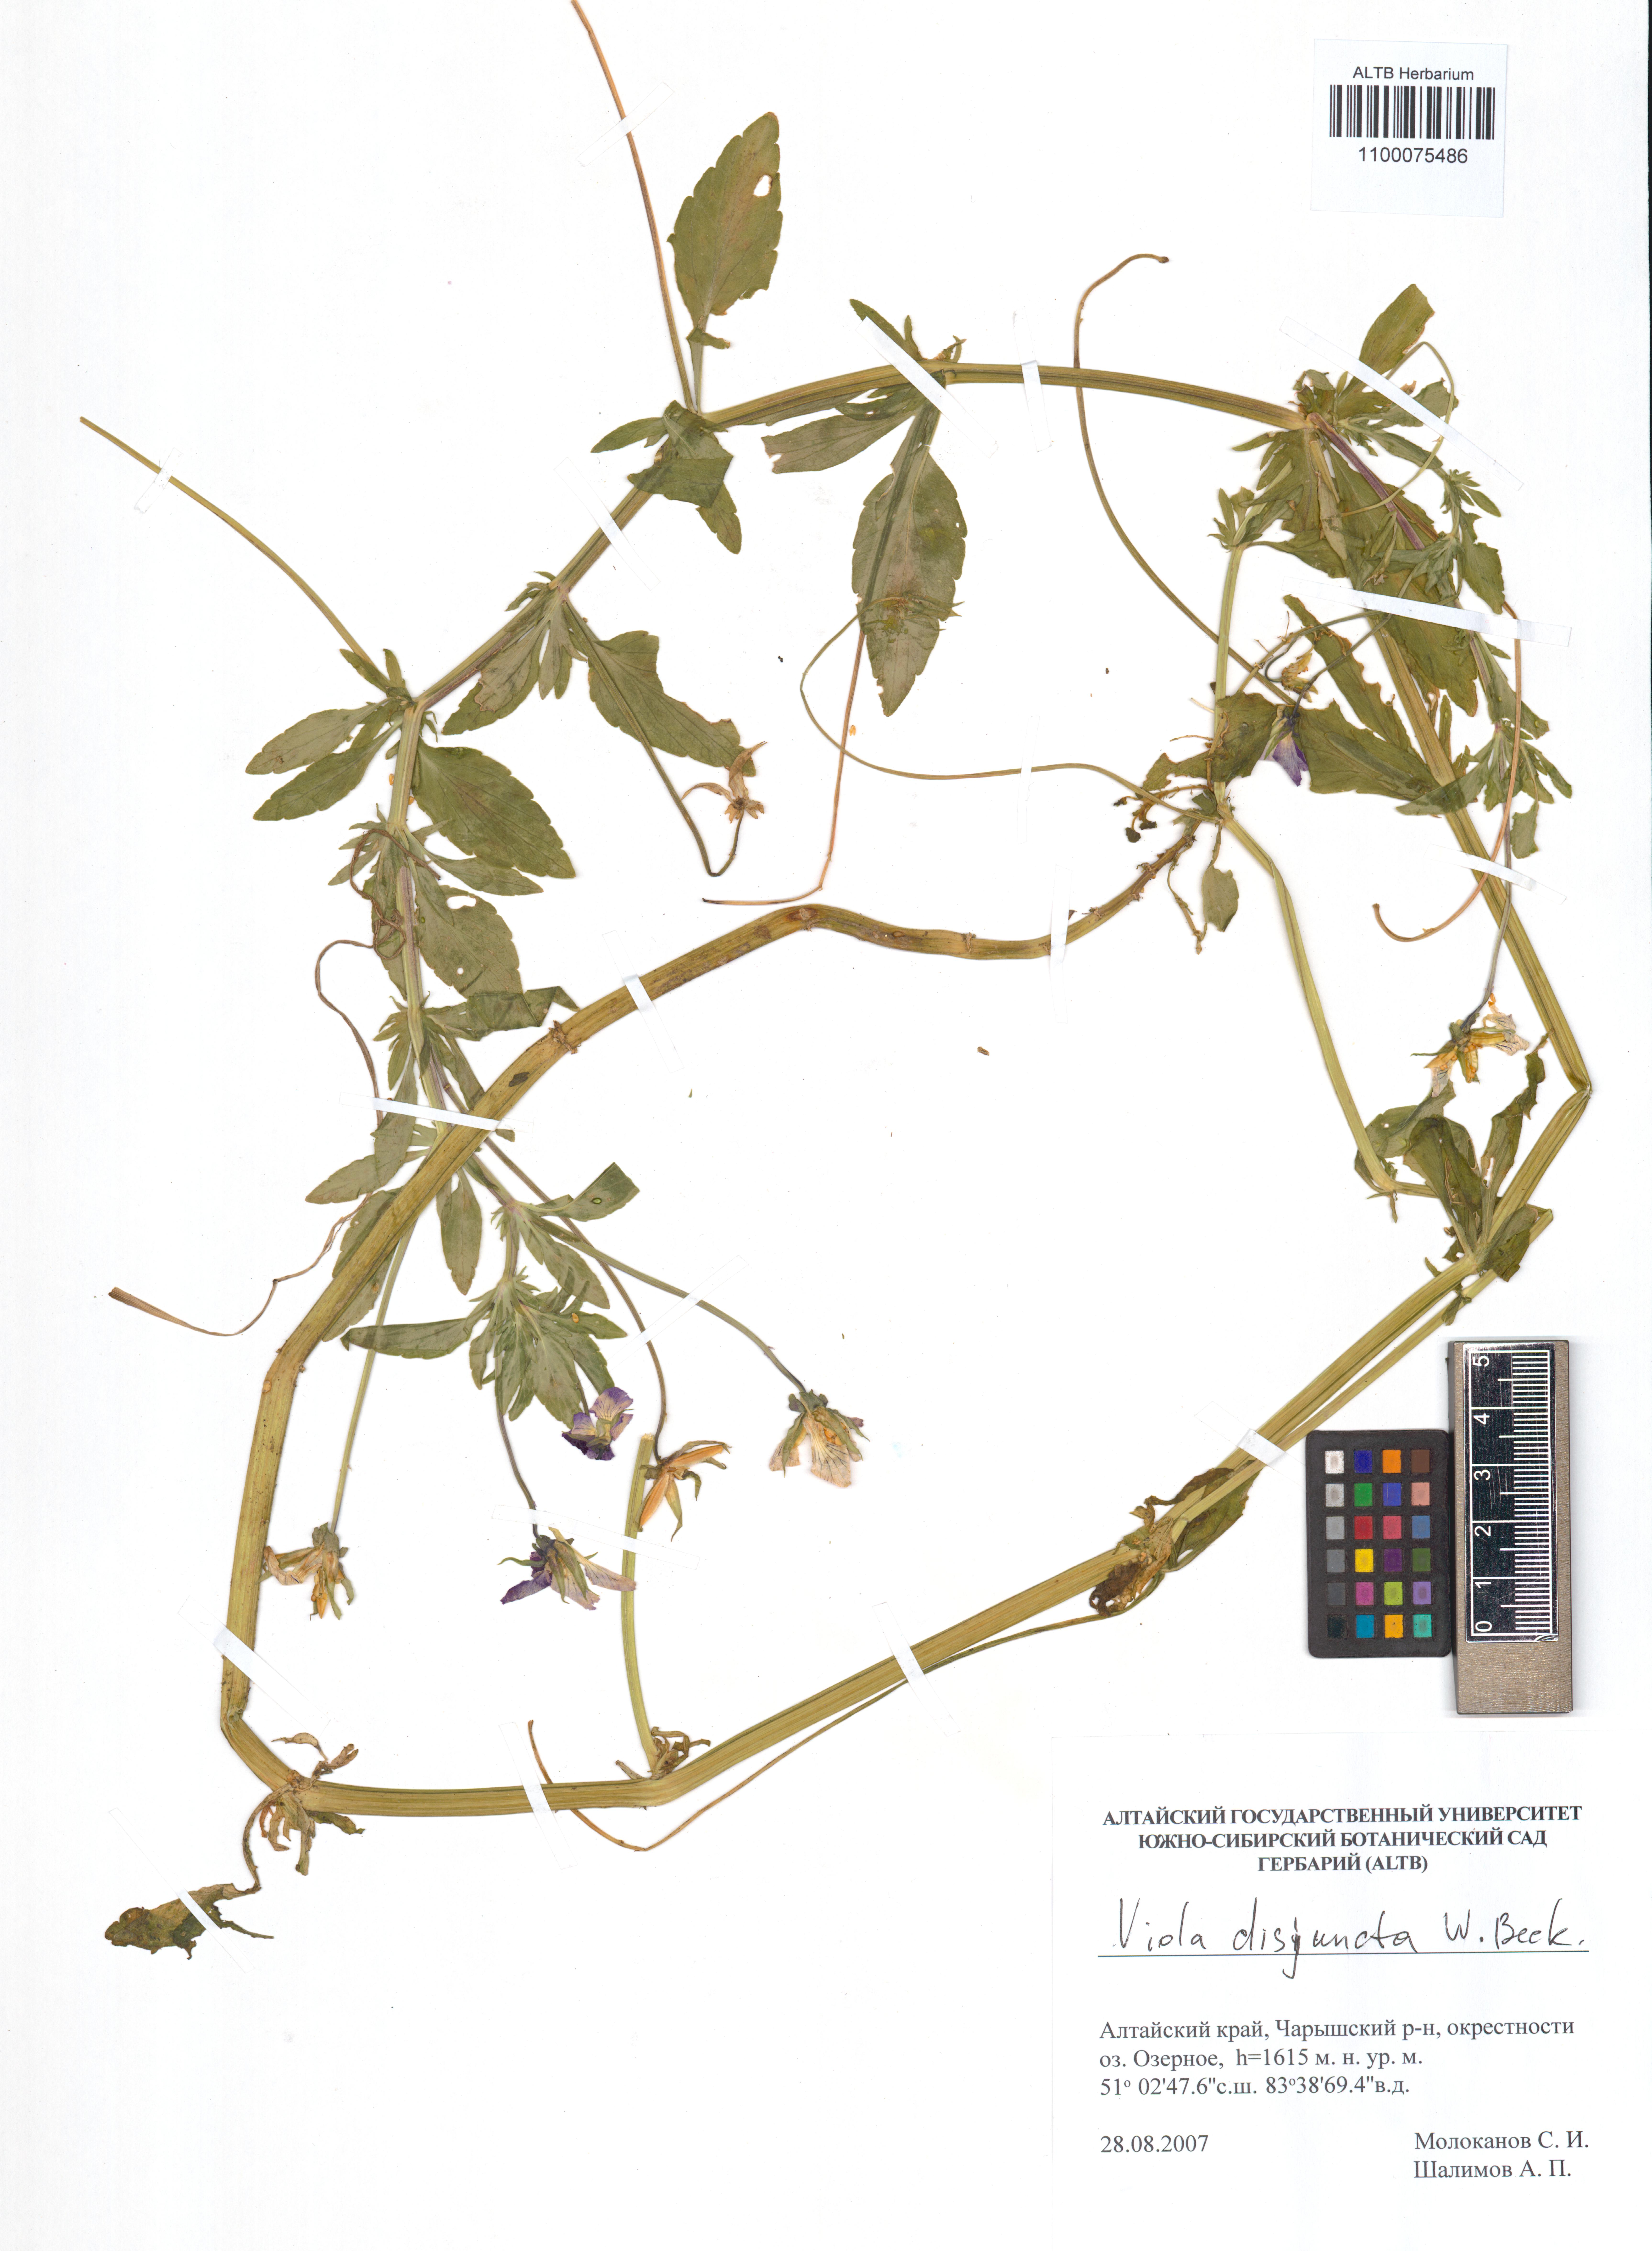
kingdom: Plantae
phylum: Tracheophyta
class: Magnoliopsida
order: Malpighiales
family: Violaceae
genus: Viola
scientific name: Viola tricolor
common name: Pansy
